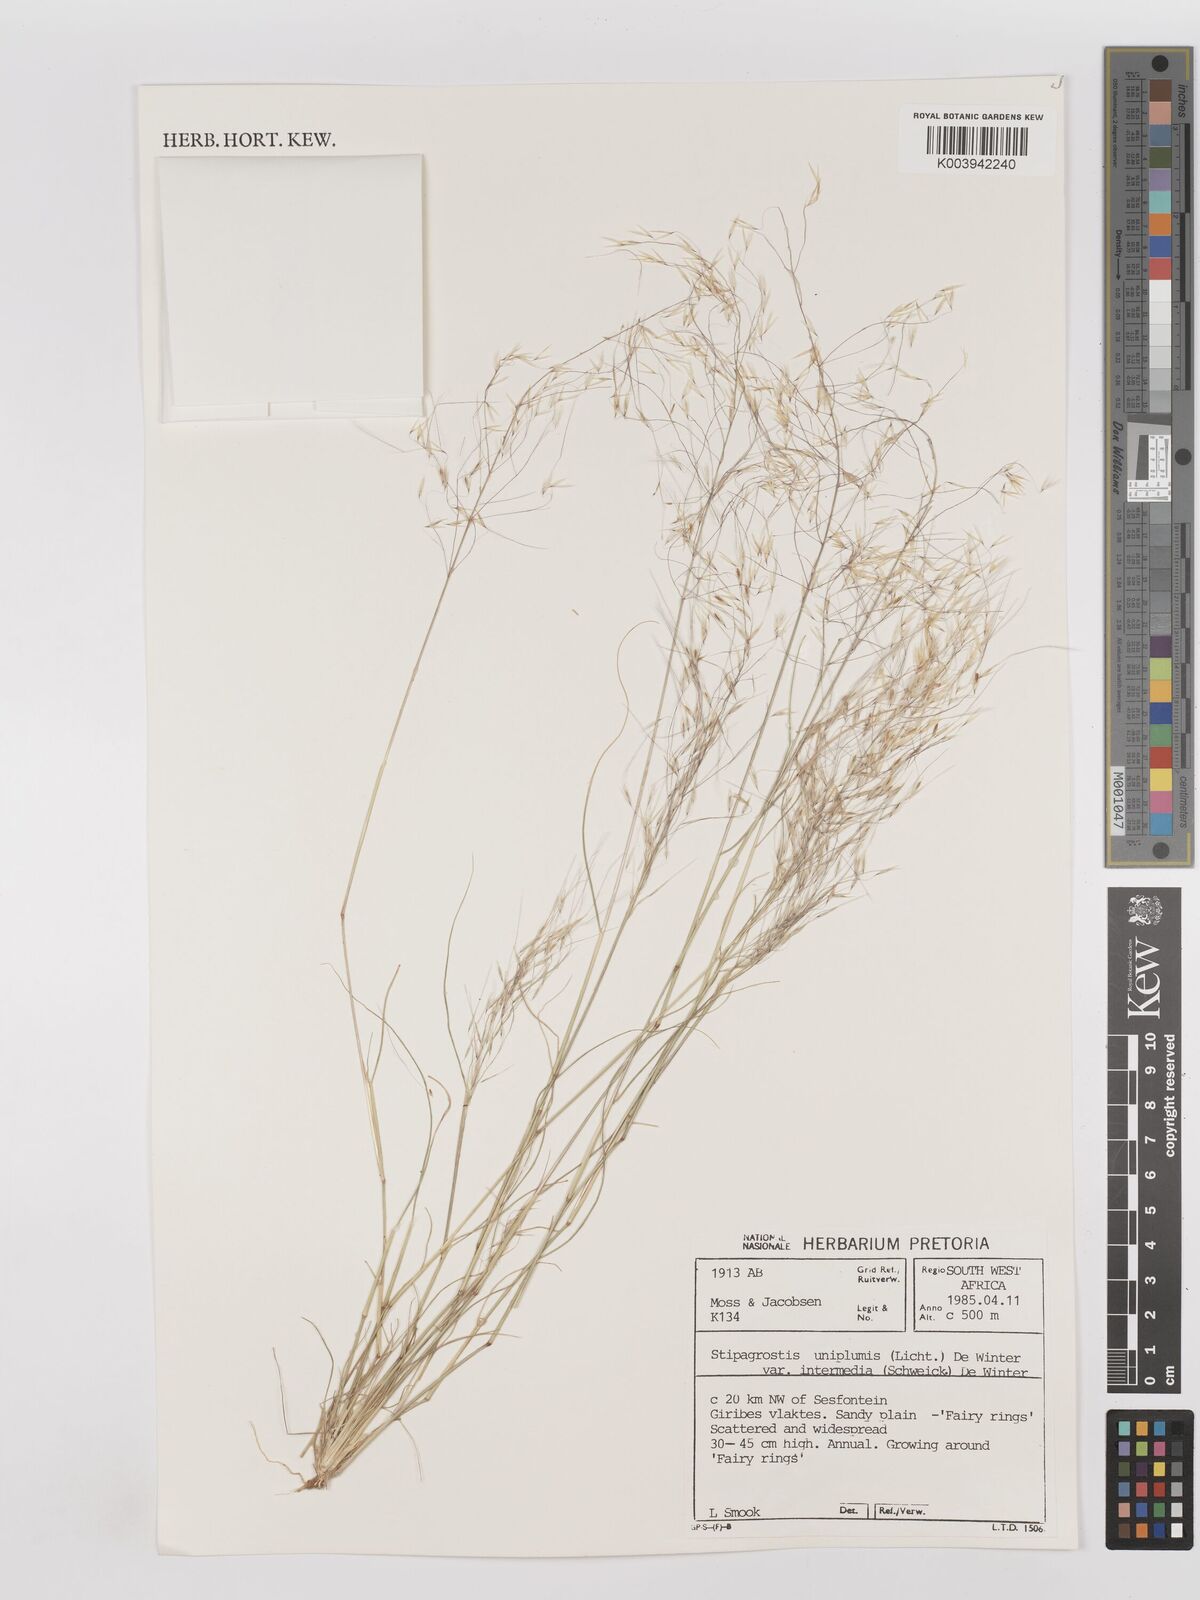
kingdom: Plantae
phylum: Tracheophyta
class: Liliopsida
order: Poales
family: Poaceae
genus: Stipagrostis
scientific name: Stipagrostis uniplumis
